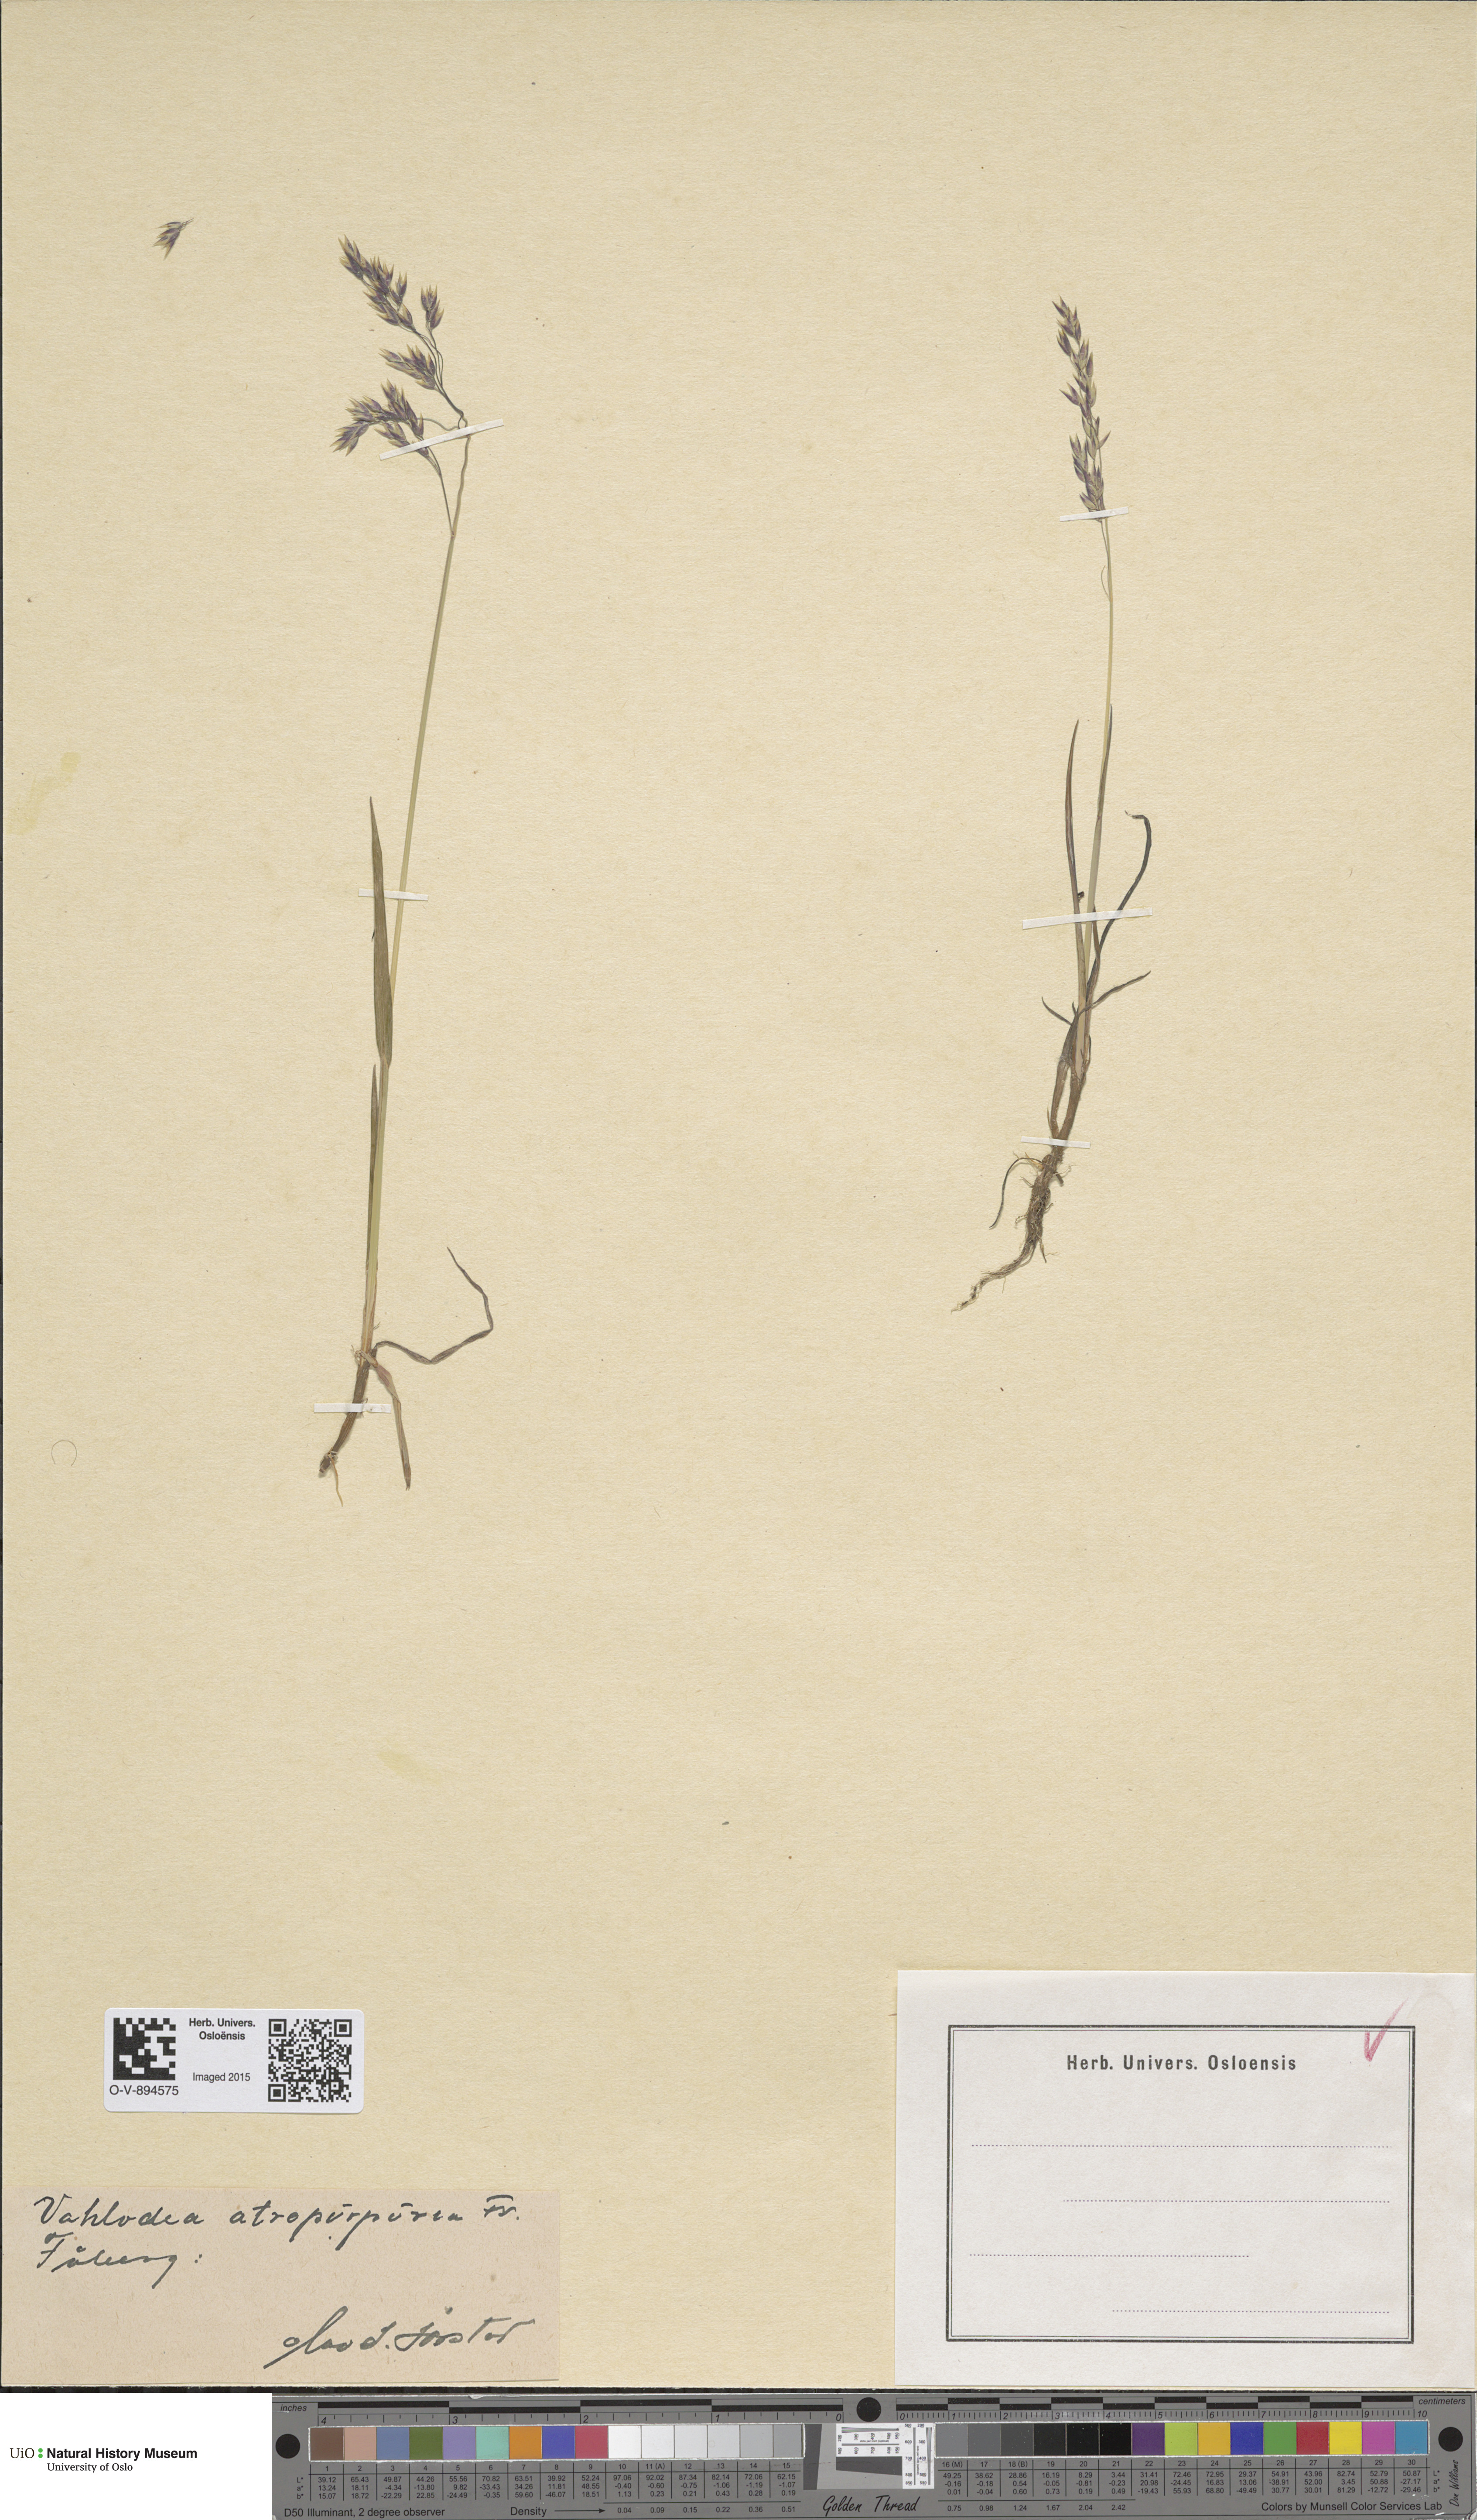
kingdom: Plantae
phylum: Tracheophyta
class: Liliopsida
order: Poales
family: Poaceae
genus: Vahlodea
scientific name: Vahlodea atropurpurea
